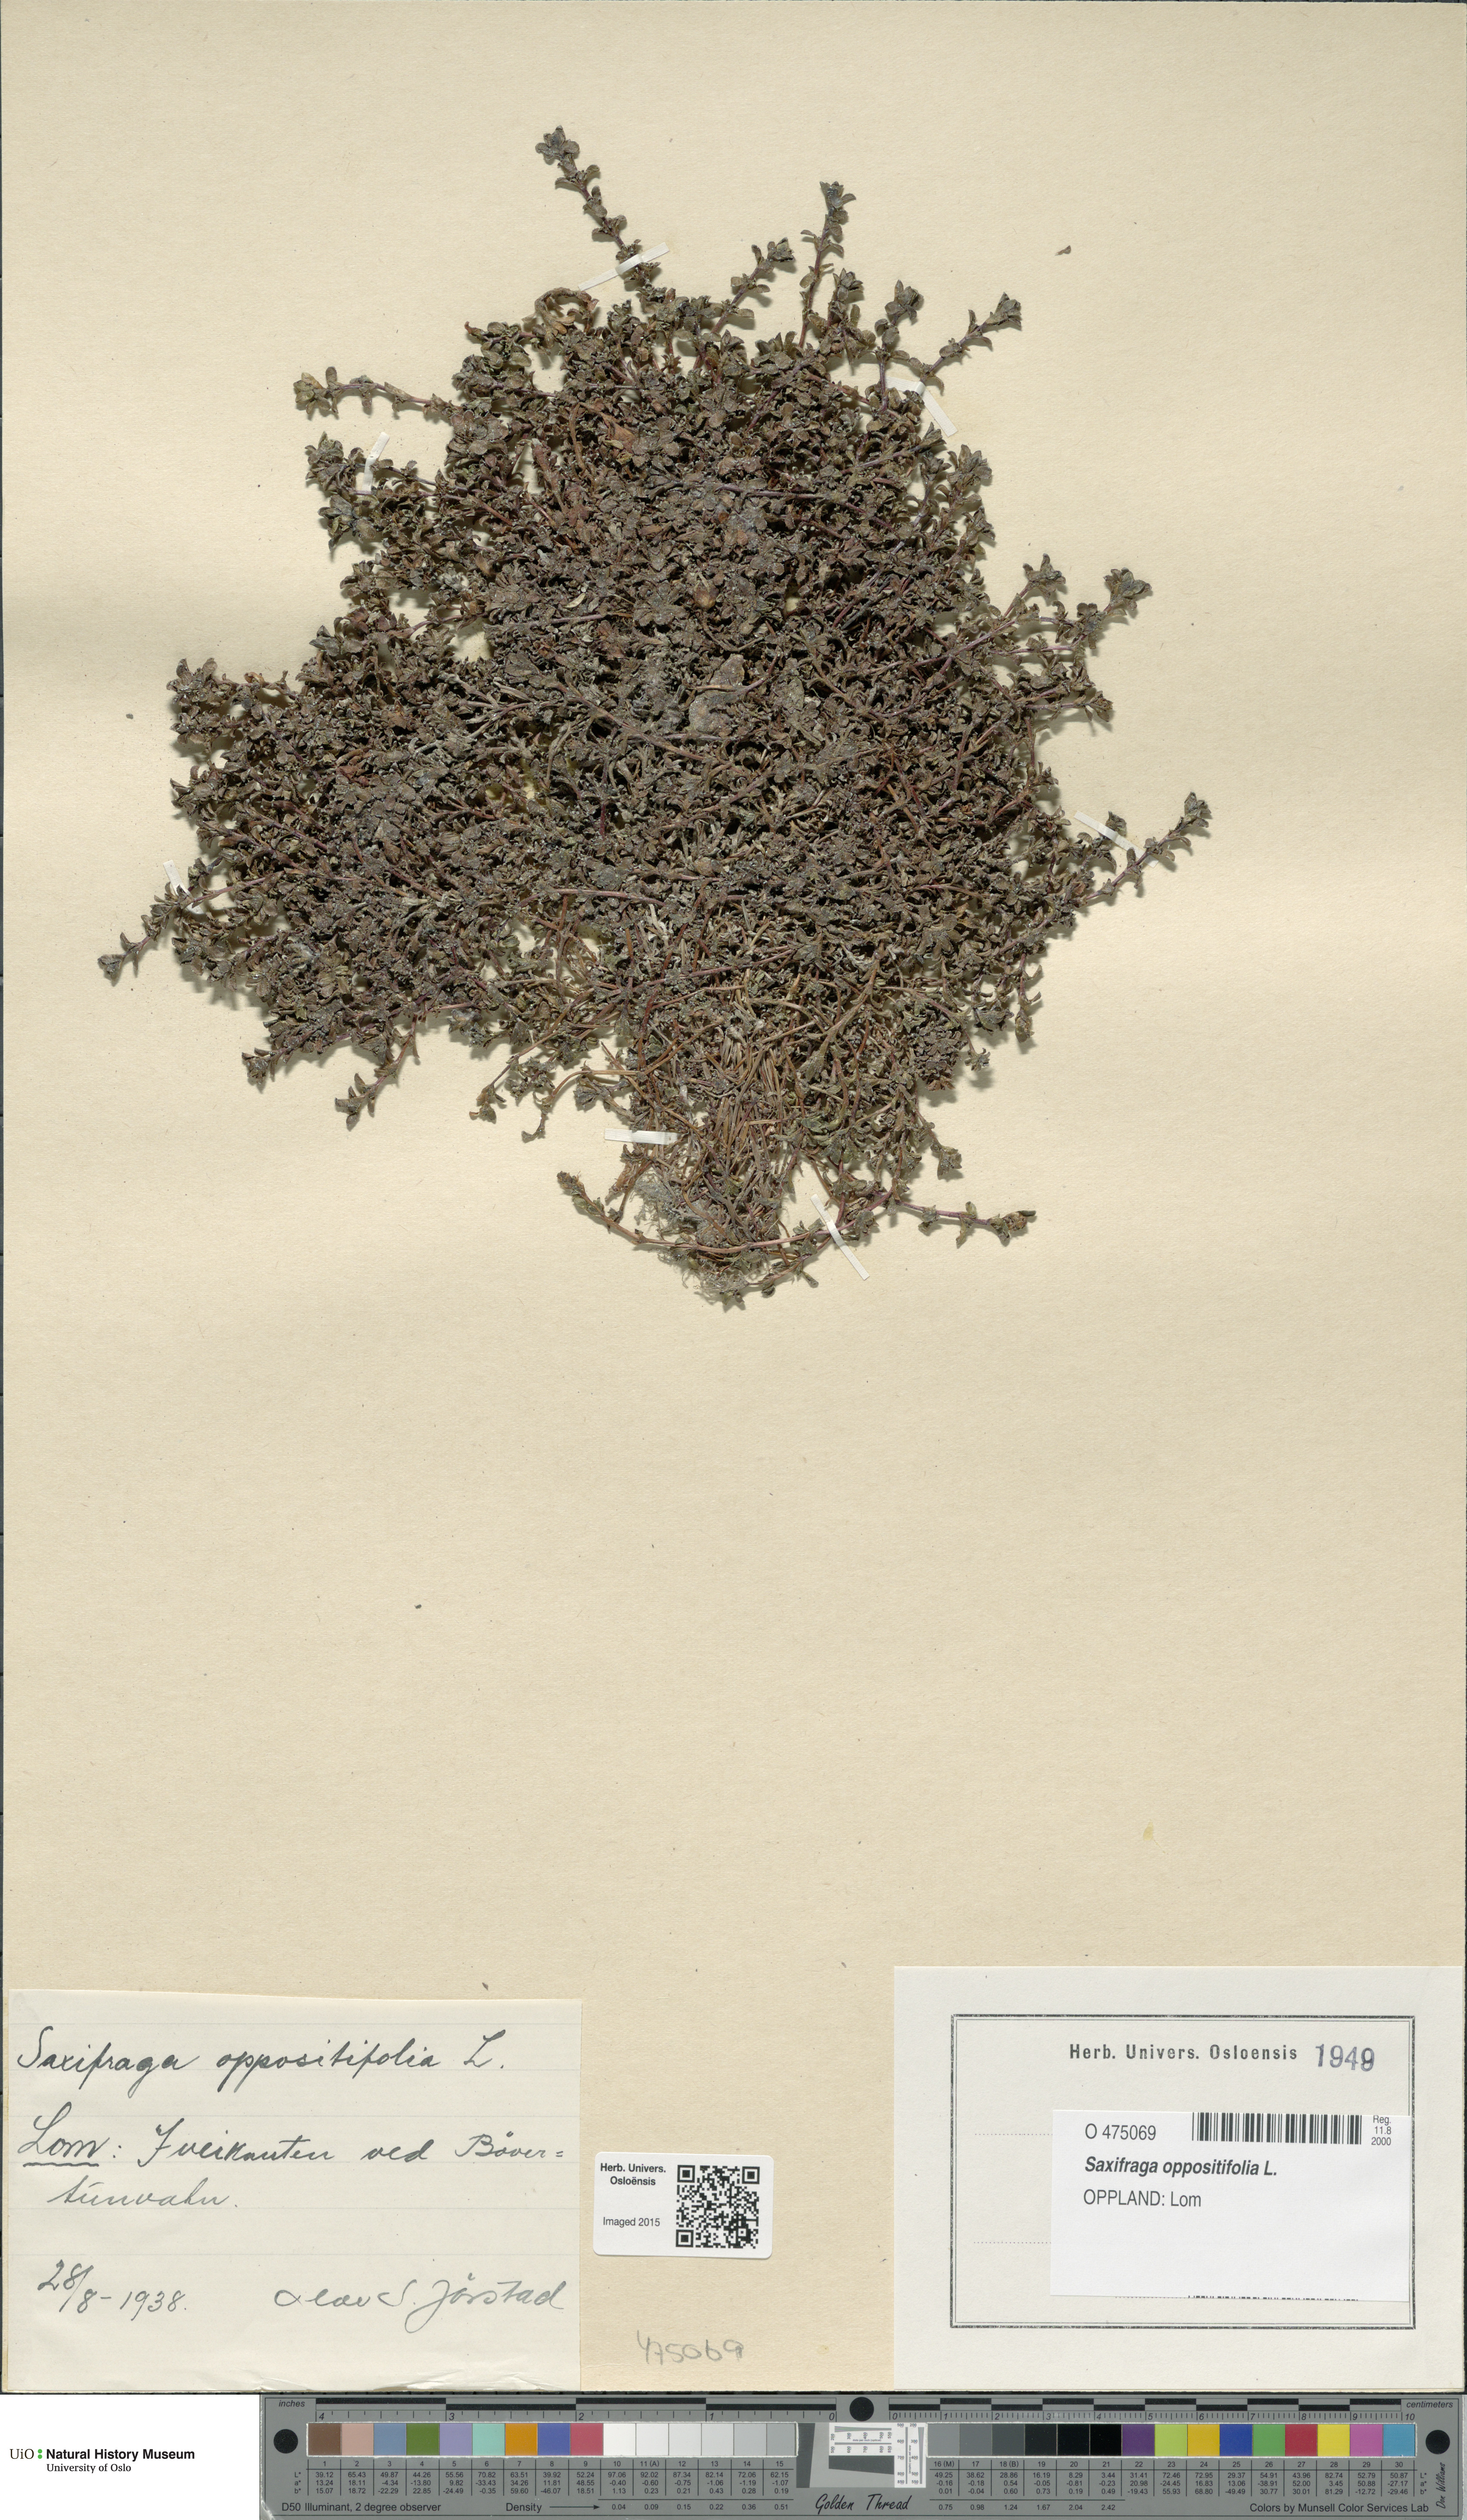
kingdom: Plantae
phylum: Tracheophyta
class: Magnoliopsida
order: Saxifragales
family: Saxifragaceae
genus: Saxifraga
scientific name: Saxifraga oppositifolia
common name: Purple saxifrage
